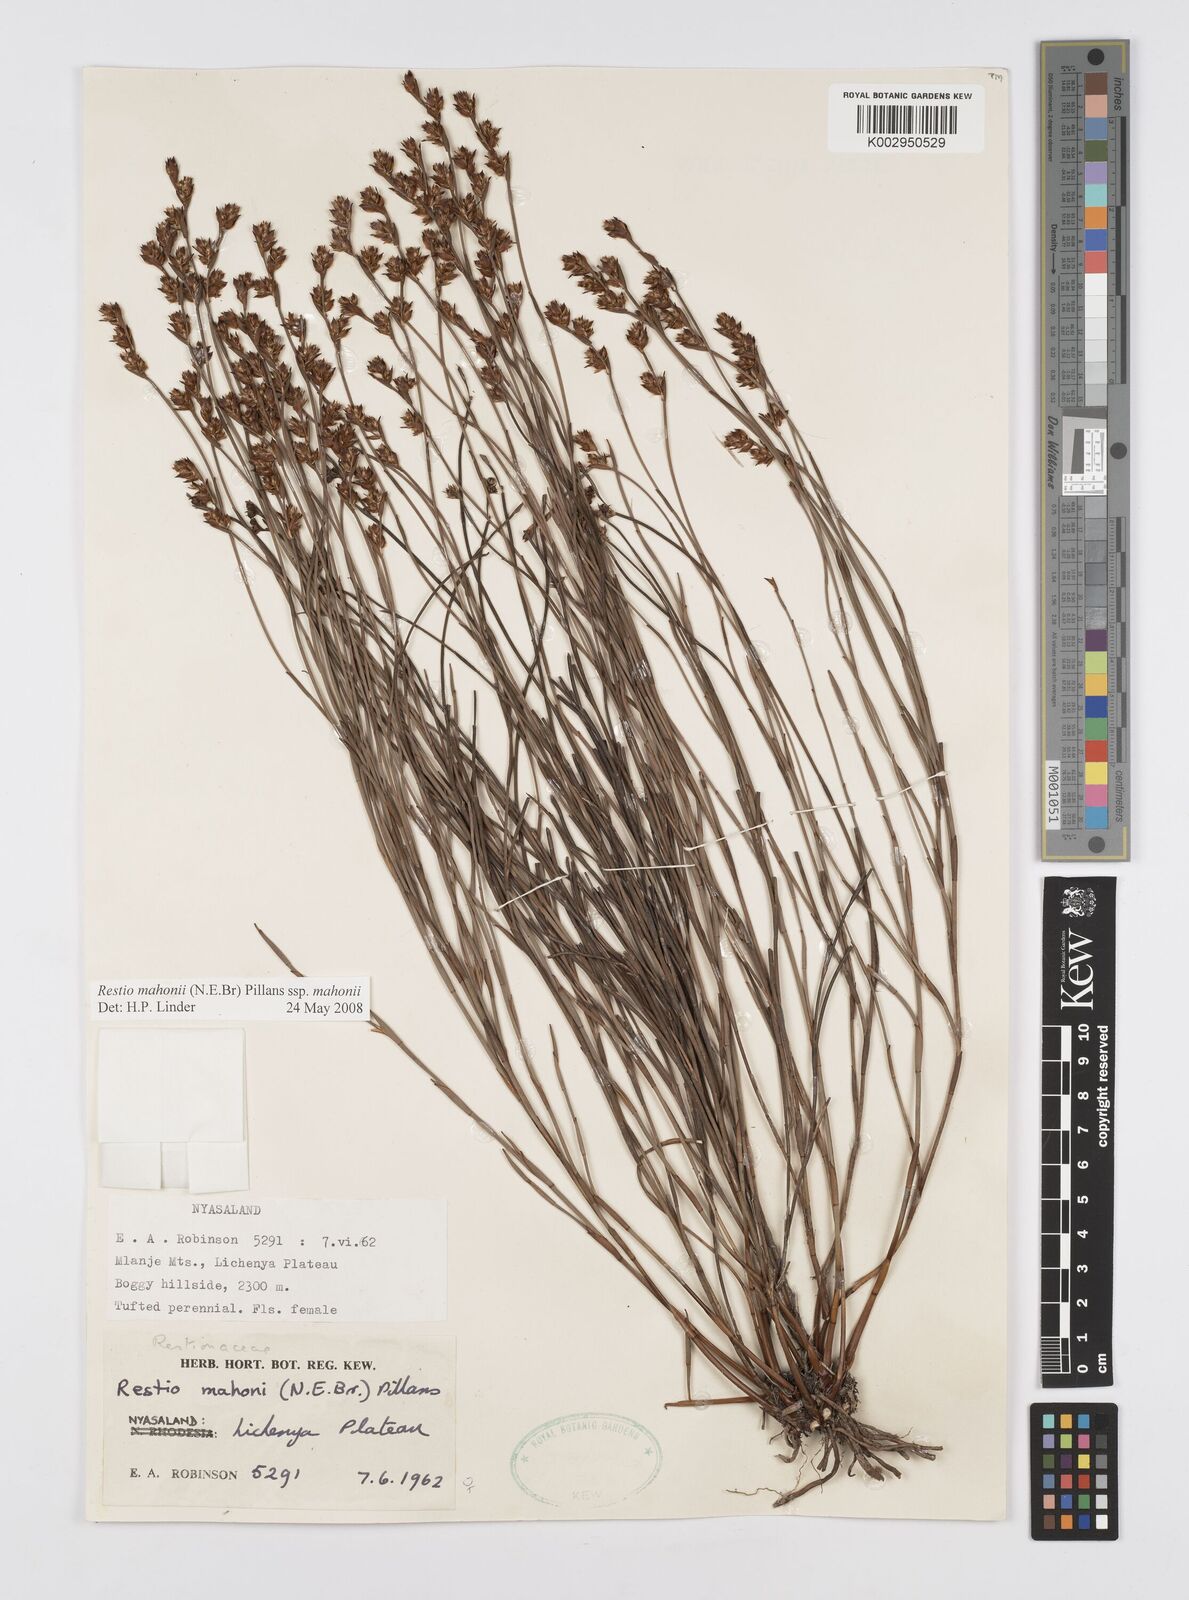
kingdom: Plantae
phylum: Tracheophyta
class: Liliopsida
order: Poales
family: Restionaceae
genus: Platycaulos
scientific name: Platycaulos mahonii
